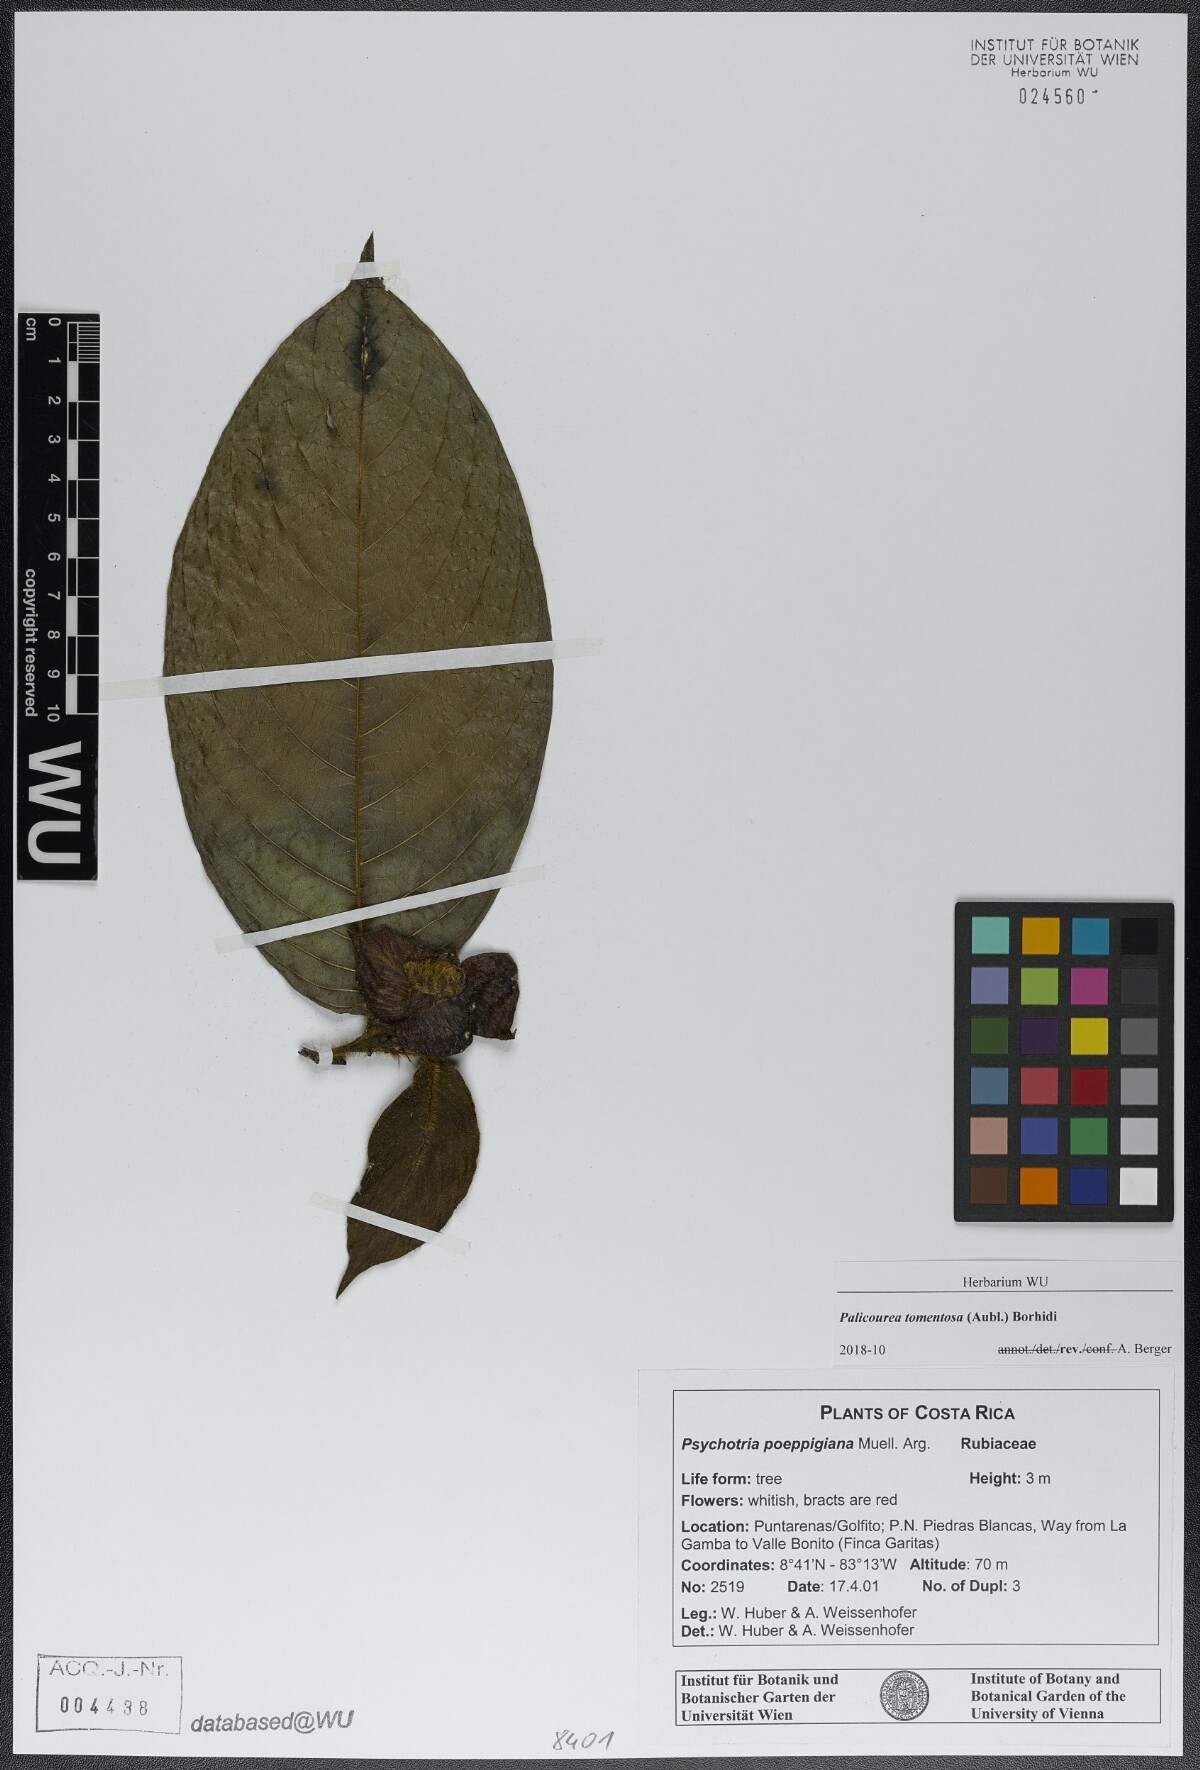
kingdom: Plantae
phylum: Tracheophyta
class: Magnoliopsida
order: Gentianales
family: Rubiaceae
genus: Palicourea
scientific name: Palicourea tomentosa
